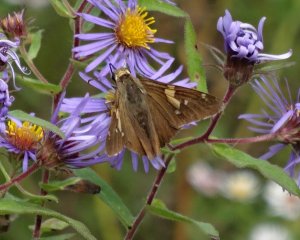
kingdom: Animalia
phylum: Arthropoda
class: Insecta
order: Lepidoptera
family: Hesperiidae
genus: Epargyreus
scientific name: Epargyreus clarus
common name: Silver-spotted Skipper
